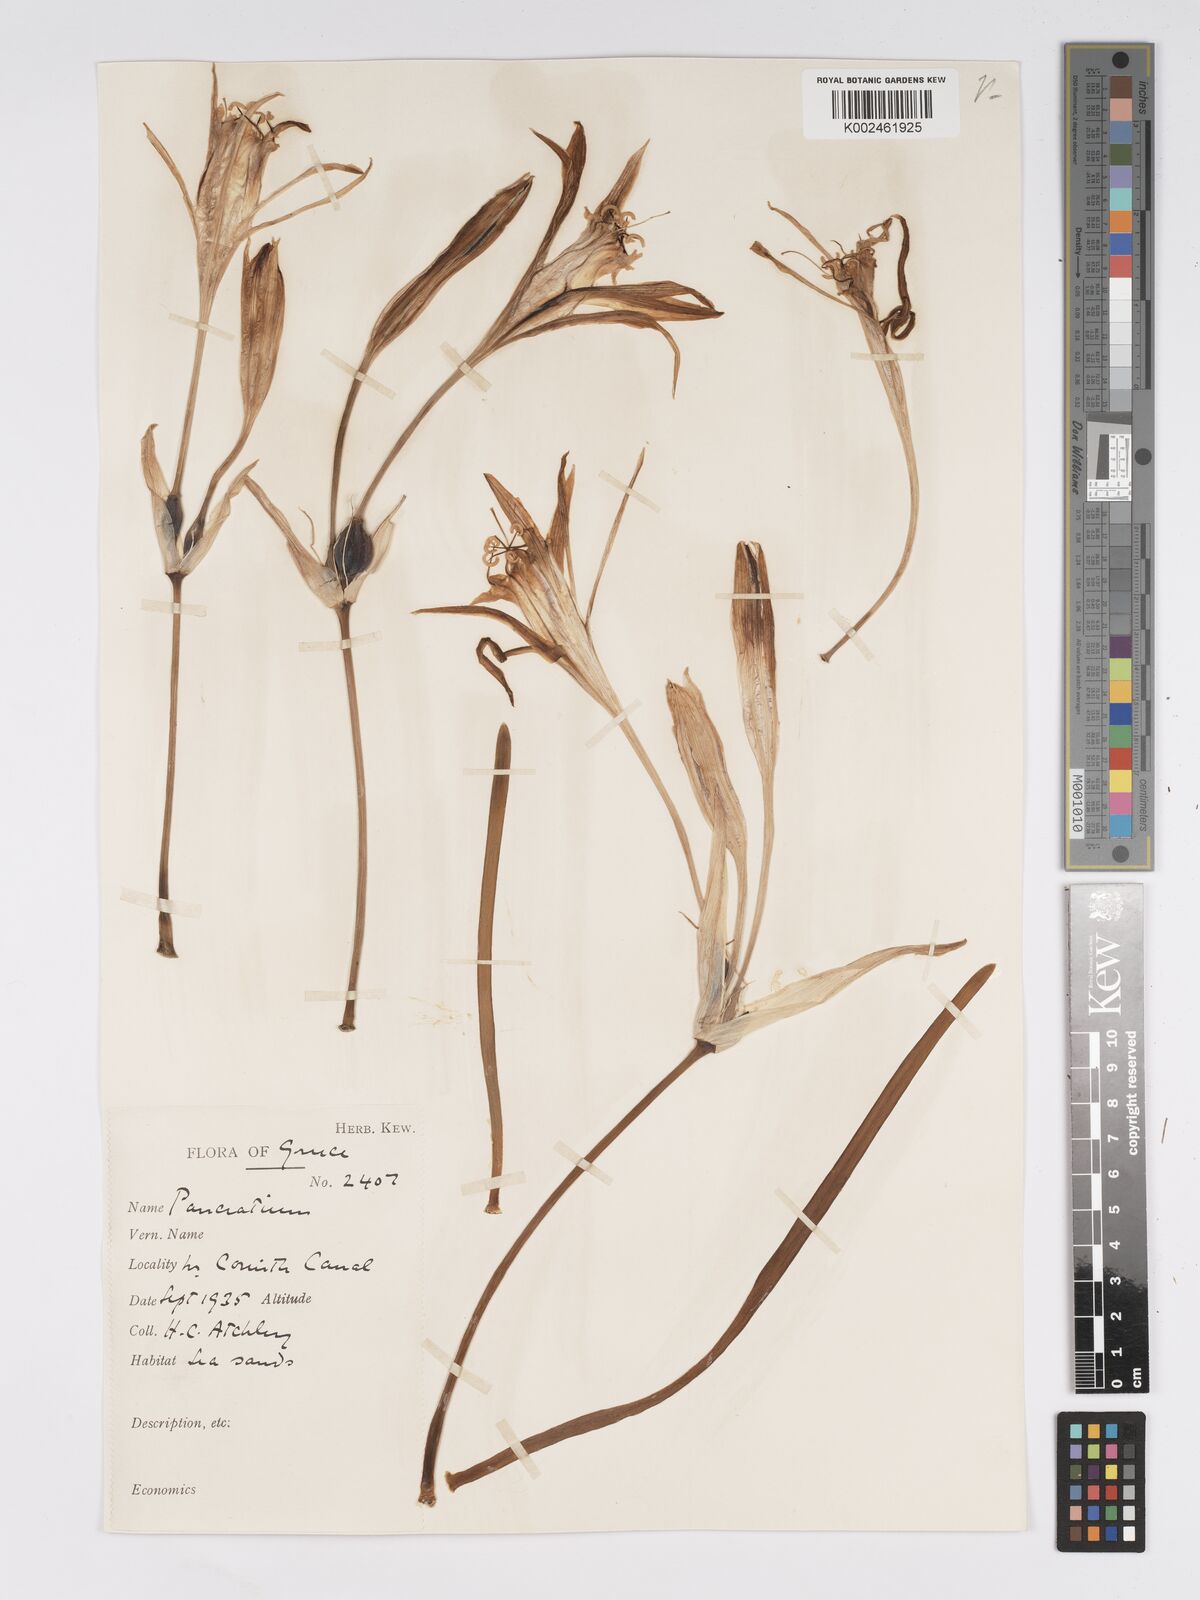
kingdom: Plantae
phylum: Tracheophyta
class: Liliopsida
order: Asparagales
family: Amaryllidaceae
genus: Pancratium
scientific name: Pancratium maritimum
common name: Sea-daffodil
